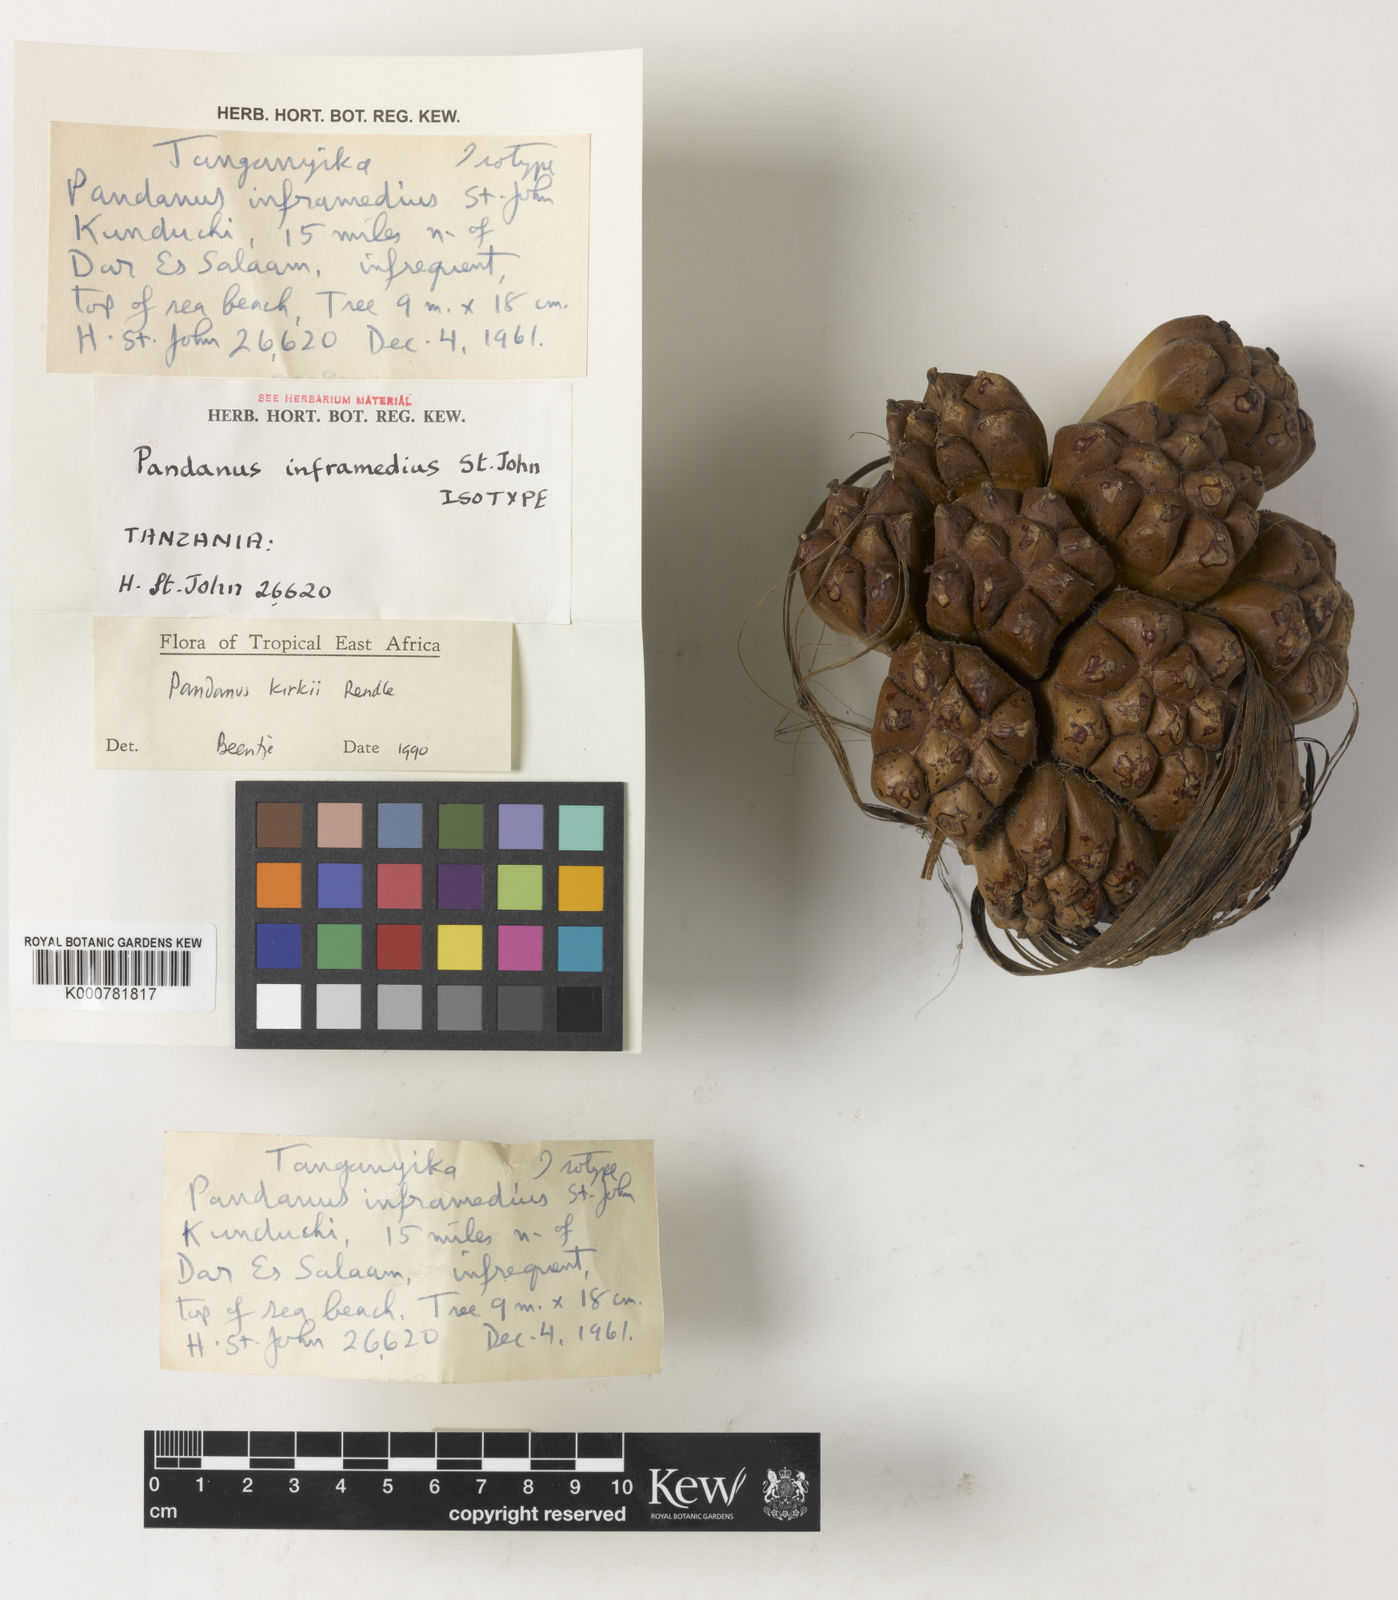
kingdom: Plantae
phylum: Tracheophyta
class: Liliopsida
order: Pandanales
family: Pandanaceae
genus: Pandanus
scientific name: Pandanus kirkii
